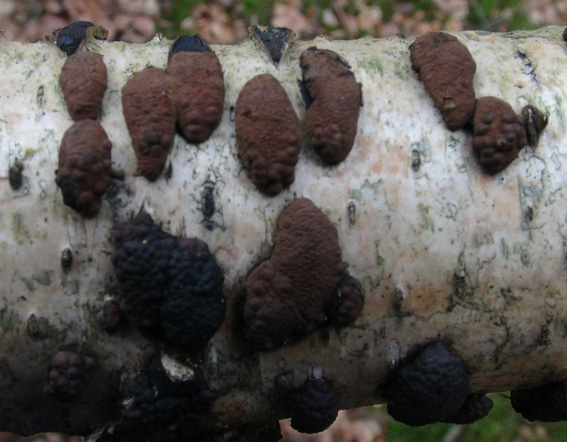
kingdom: Fungi
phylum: Ascomycota
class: Sordariomycetes
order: Xylariales
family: Hypoxylaceae
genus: Jackrogersella
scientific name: Jackrogersella multiformis
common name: foranderlig kulbær
